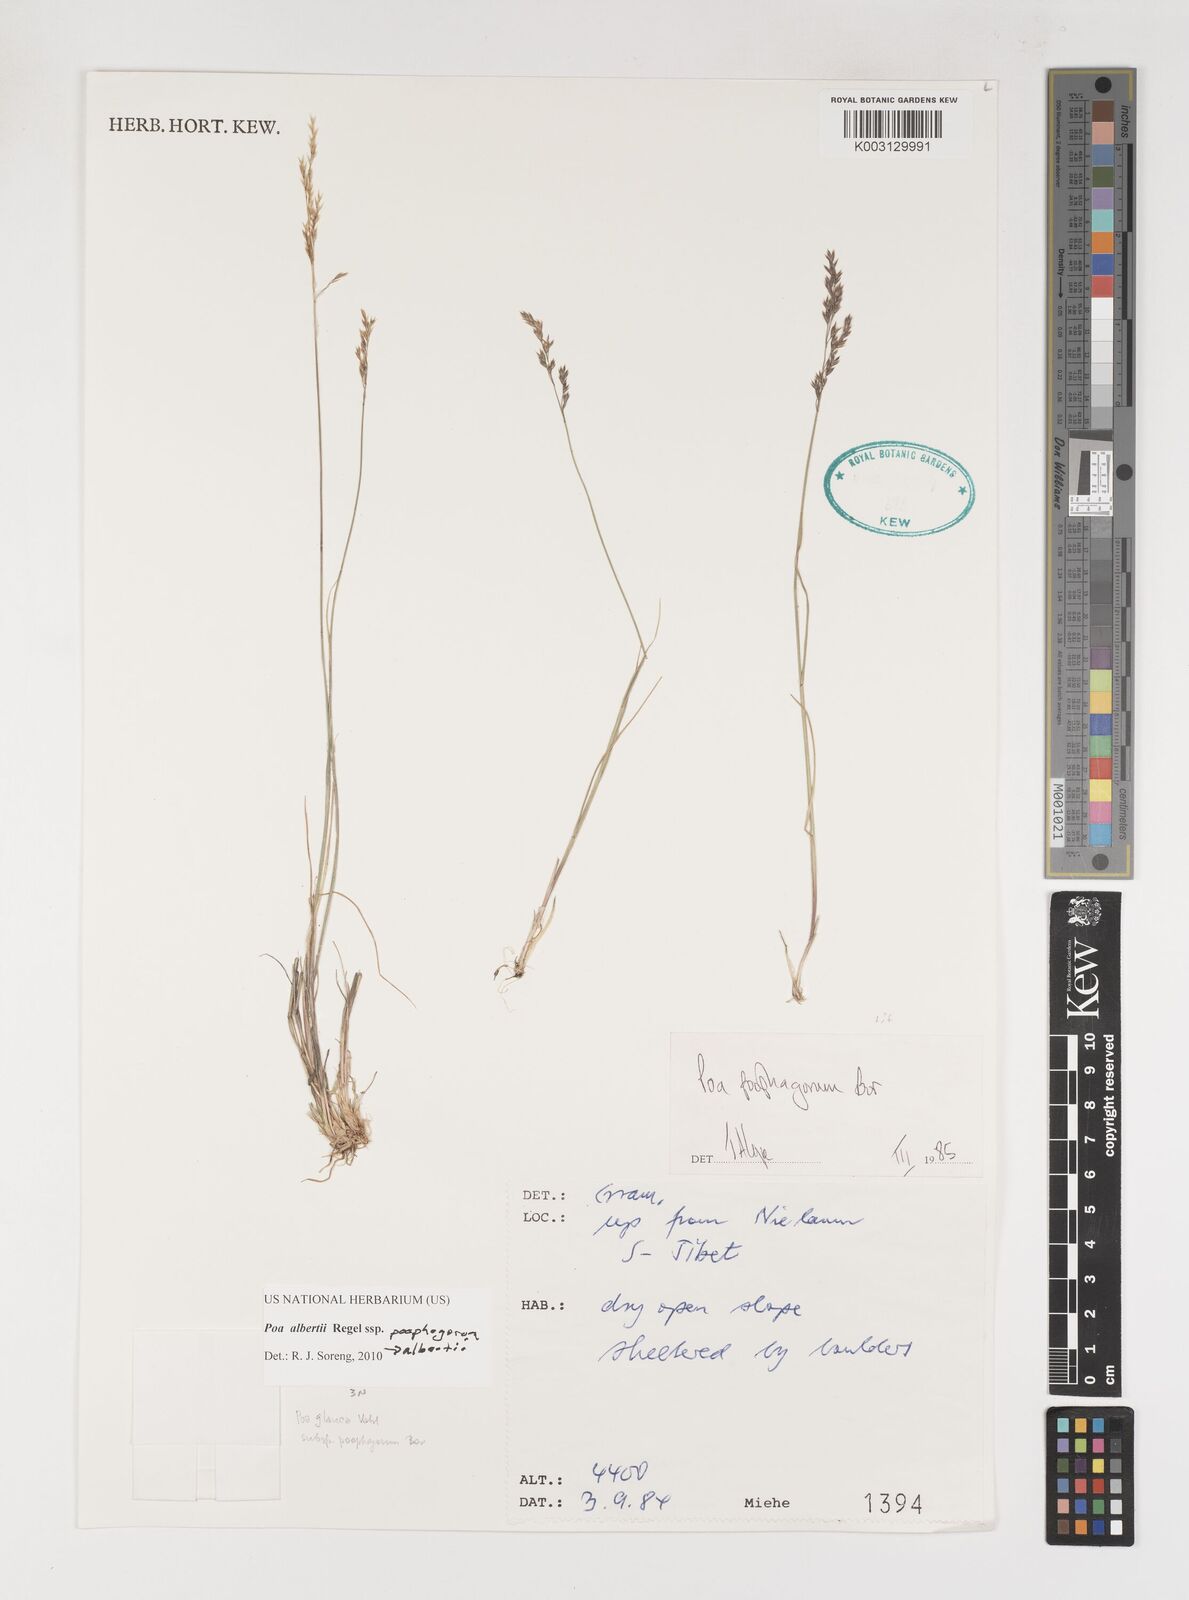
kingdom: Plantae
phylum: Tracheophyta
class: Liliopsida
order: Poales
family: Poaceae
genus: Poa
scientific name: Poa alberti
